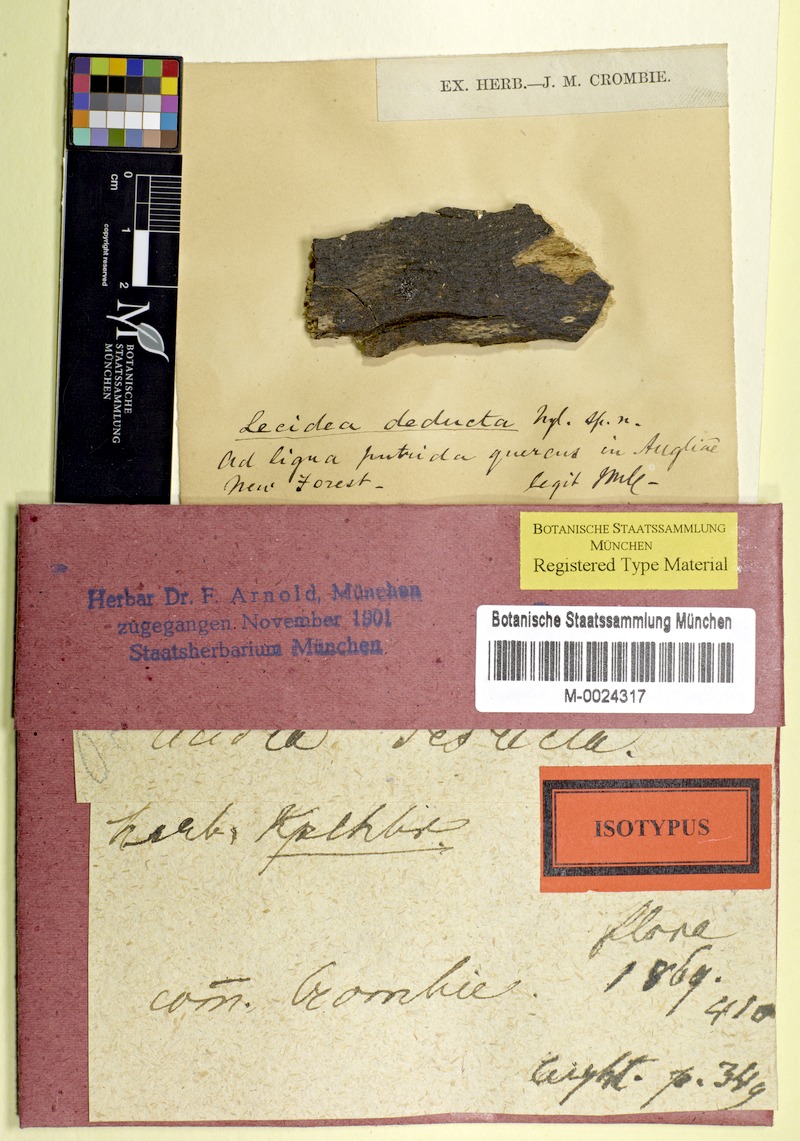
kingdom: Fungi
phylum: Ascomycota
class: Lecanoromycetes
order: Lecanorales
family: Ramalinaceae
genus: Bacidia
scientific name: Bacidia
